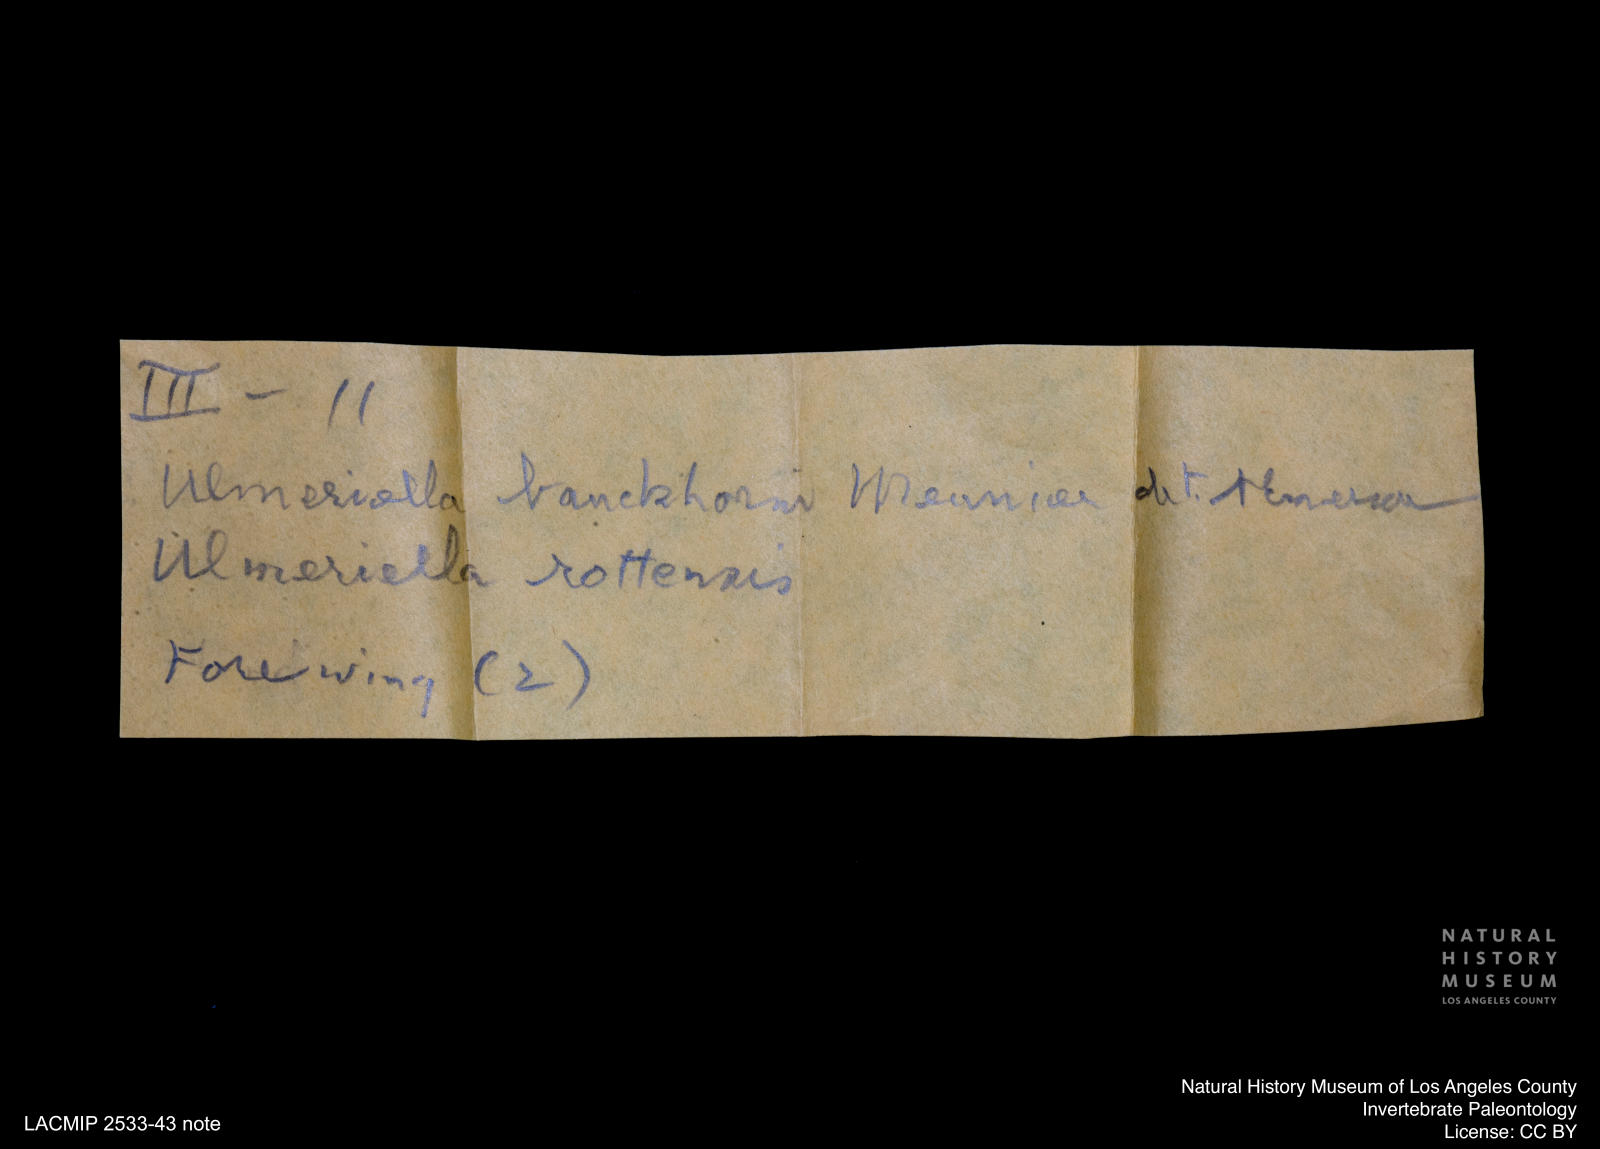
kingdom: Animalia
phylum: Arthropoda
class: Insecta
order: Blattodea
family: Hodotermitidae
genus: Ulmeriella
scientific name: Ulmeriella bauckhorni
